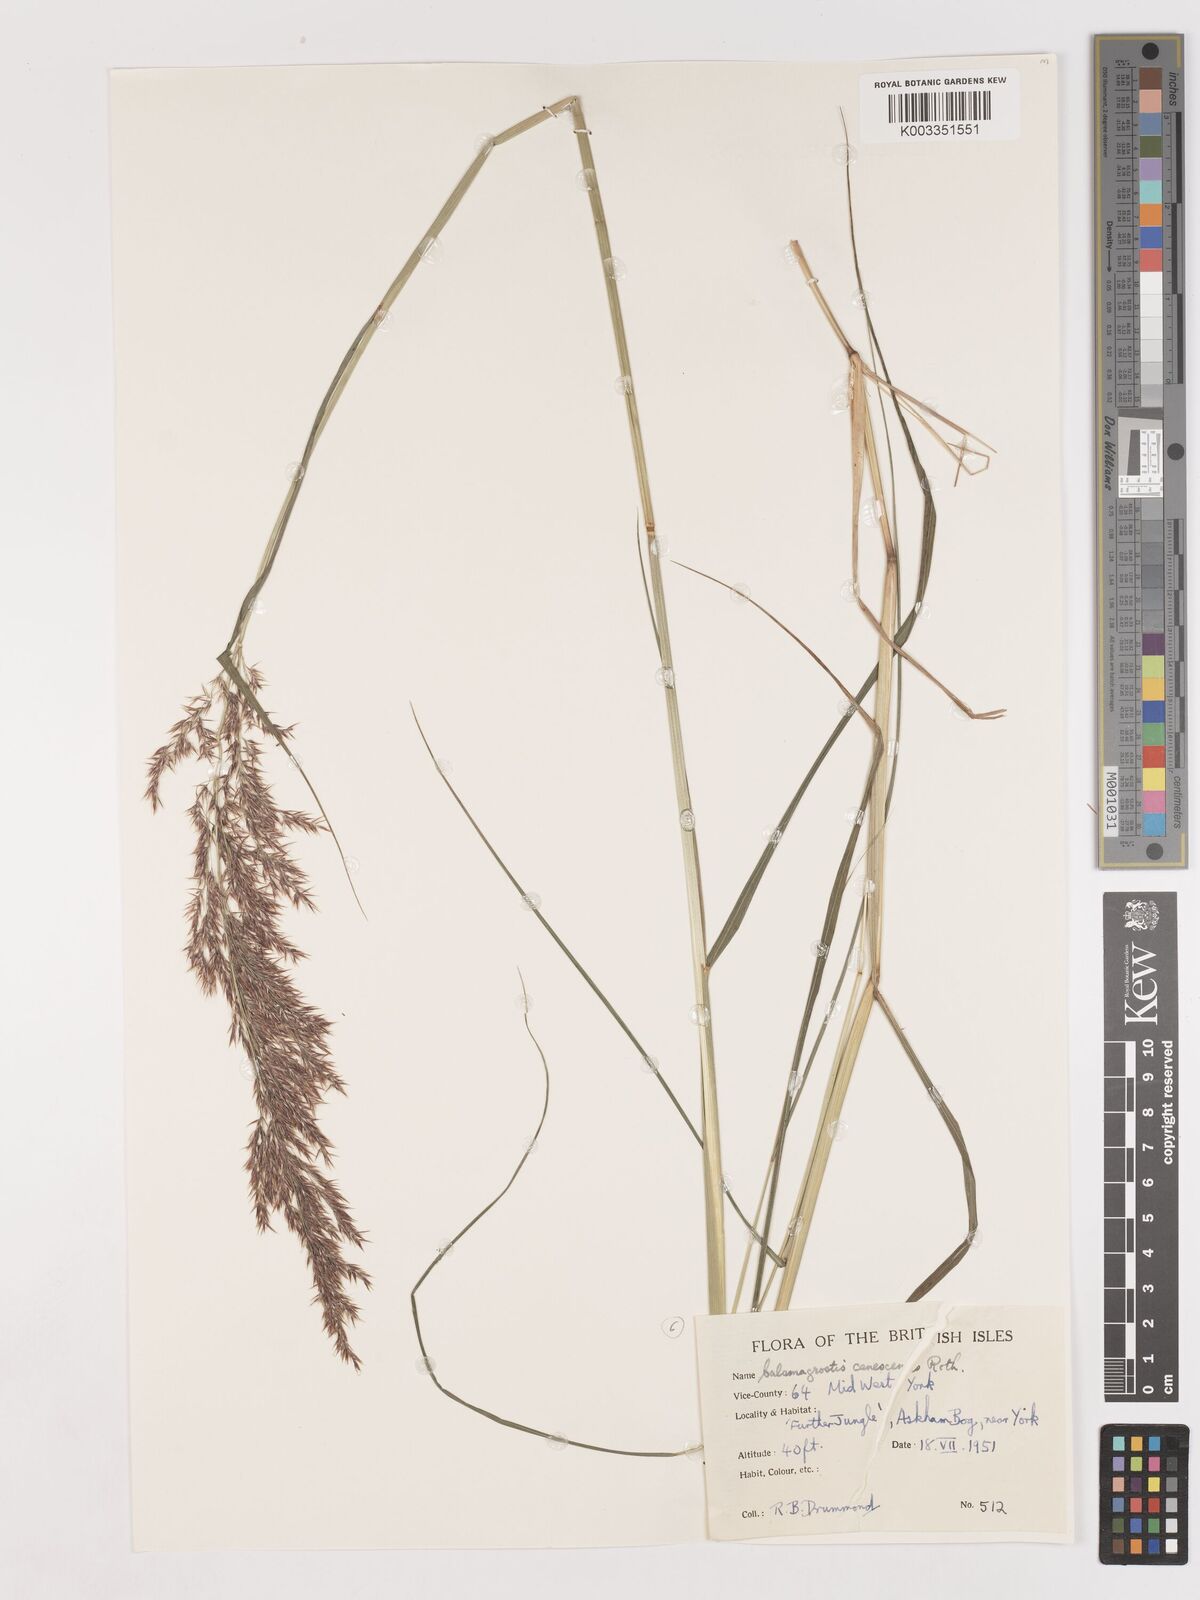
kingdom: Plantae
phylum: Tracheophyta
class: Liliopsida
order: Poales
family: Poaceae
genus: Calamagrostis
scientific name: Calamagrostis canescens
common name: Purple small-reed
